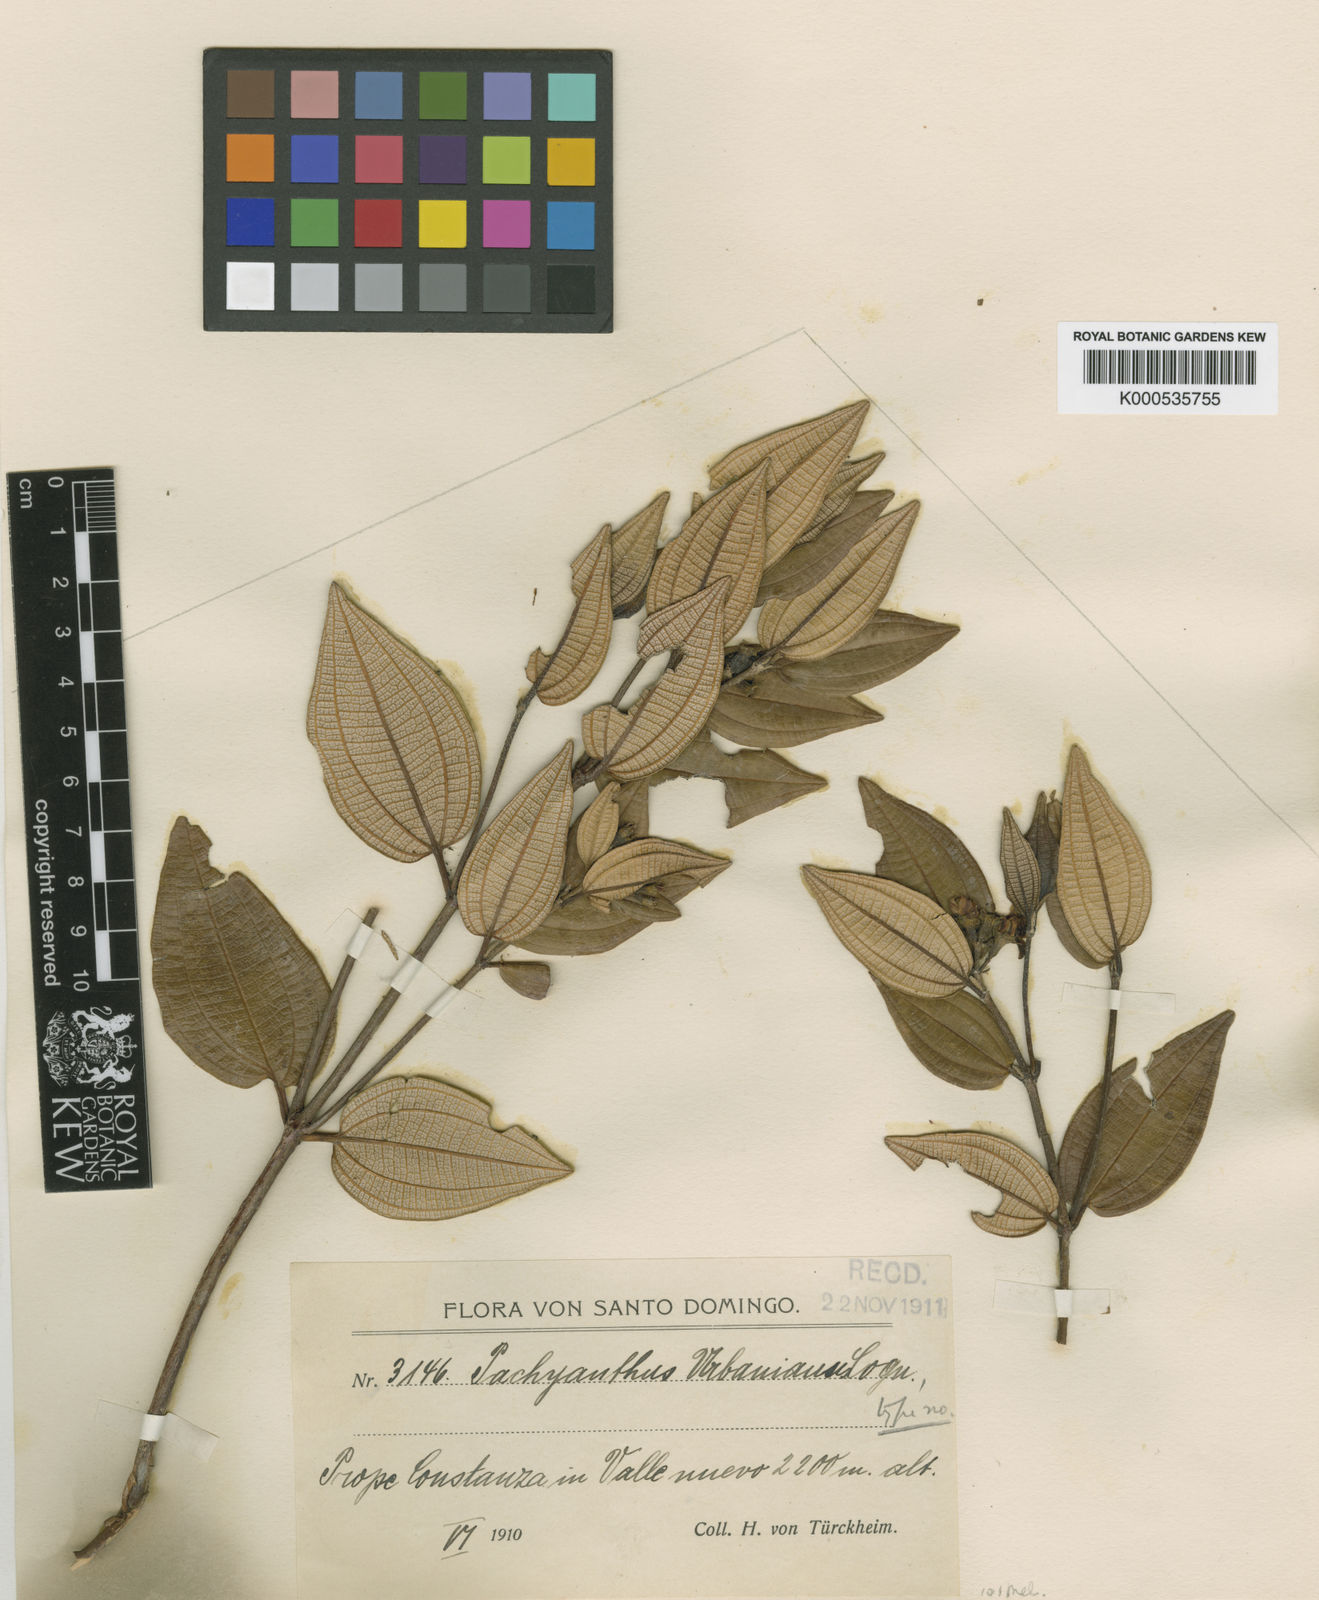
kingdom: Plantae
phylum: Tracheophyta
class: Magnoliopsida
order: Myrtales
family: Melastomataceae
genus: Miconia
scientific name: Miconia macrocarpa
